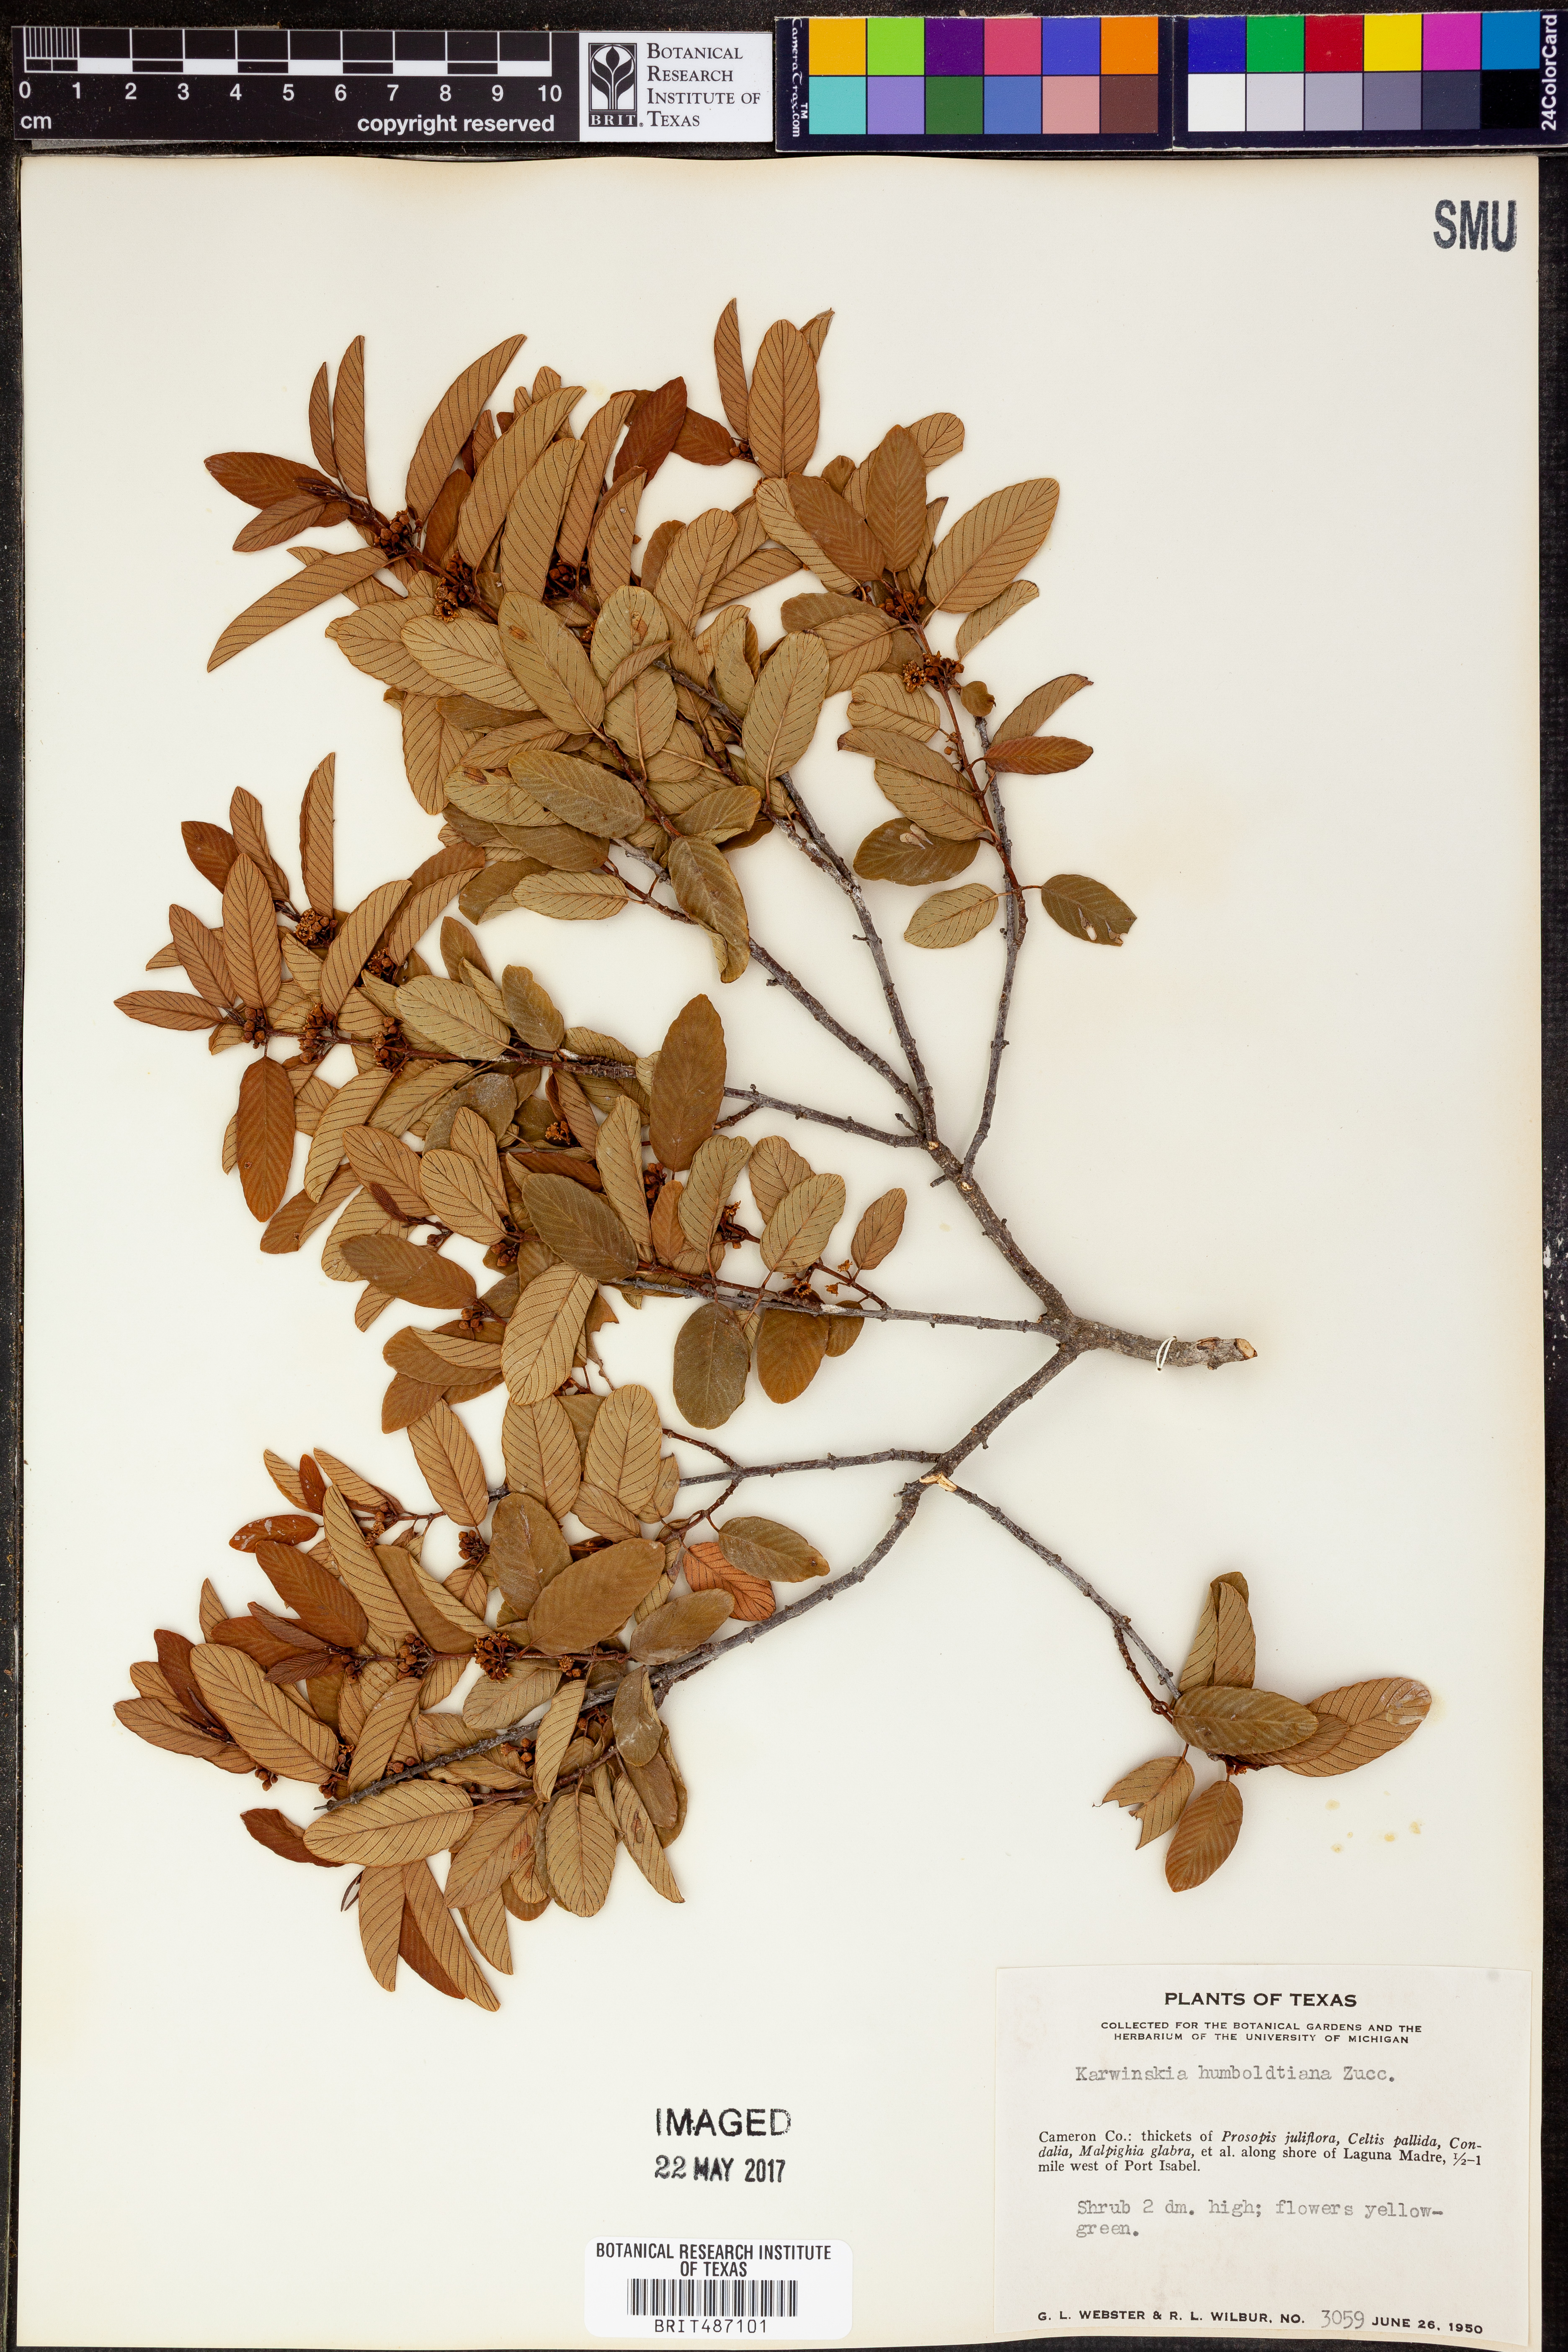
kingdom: Plantae
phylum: Tracheophyta
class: Magnoliopsida
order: Rosales
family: Rhamnaceae
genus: Karwinskia
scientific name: Karwinskia humboldtiana
